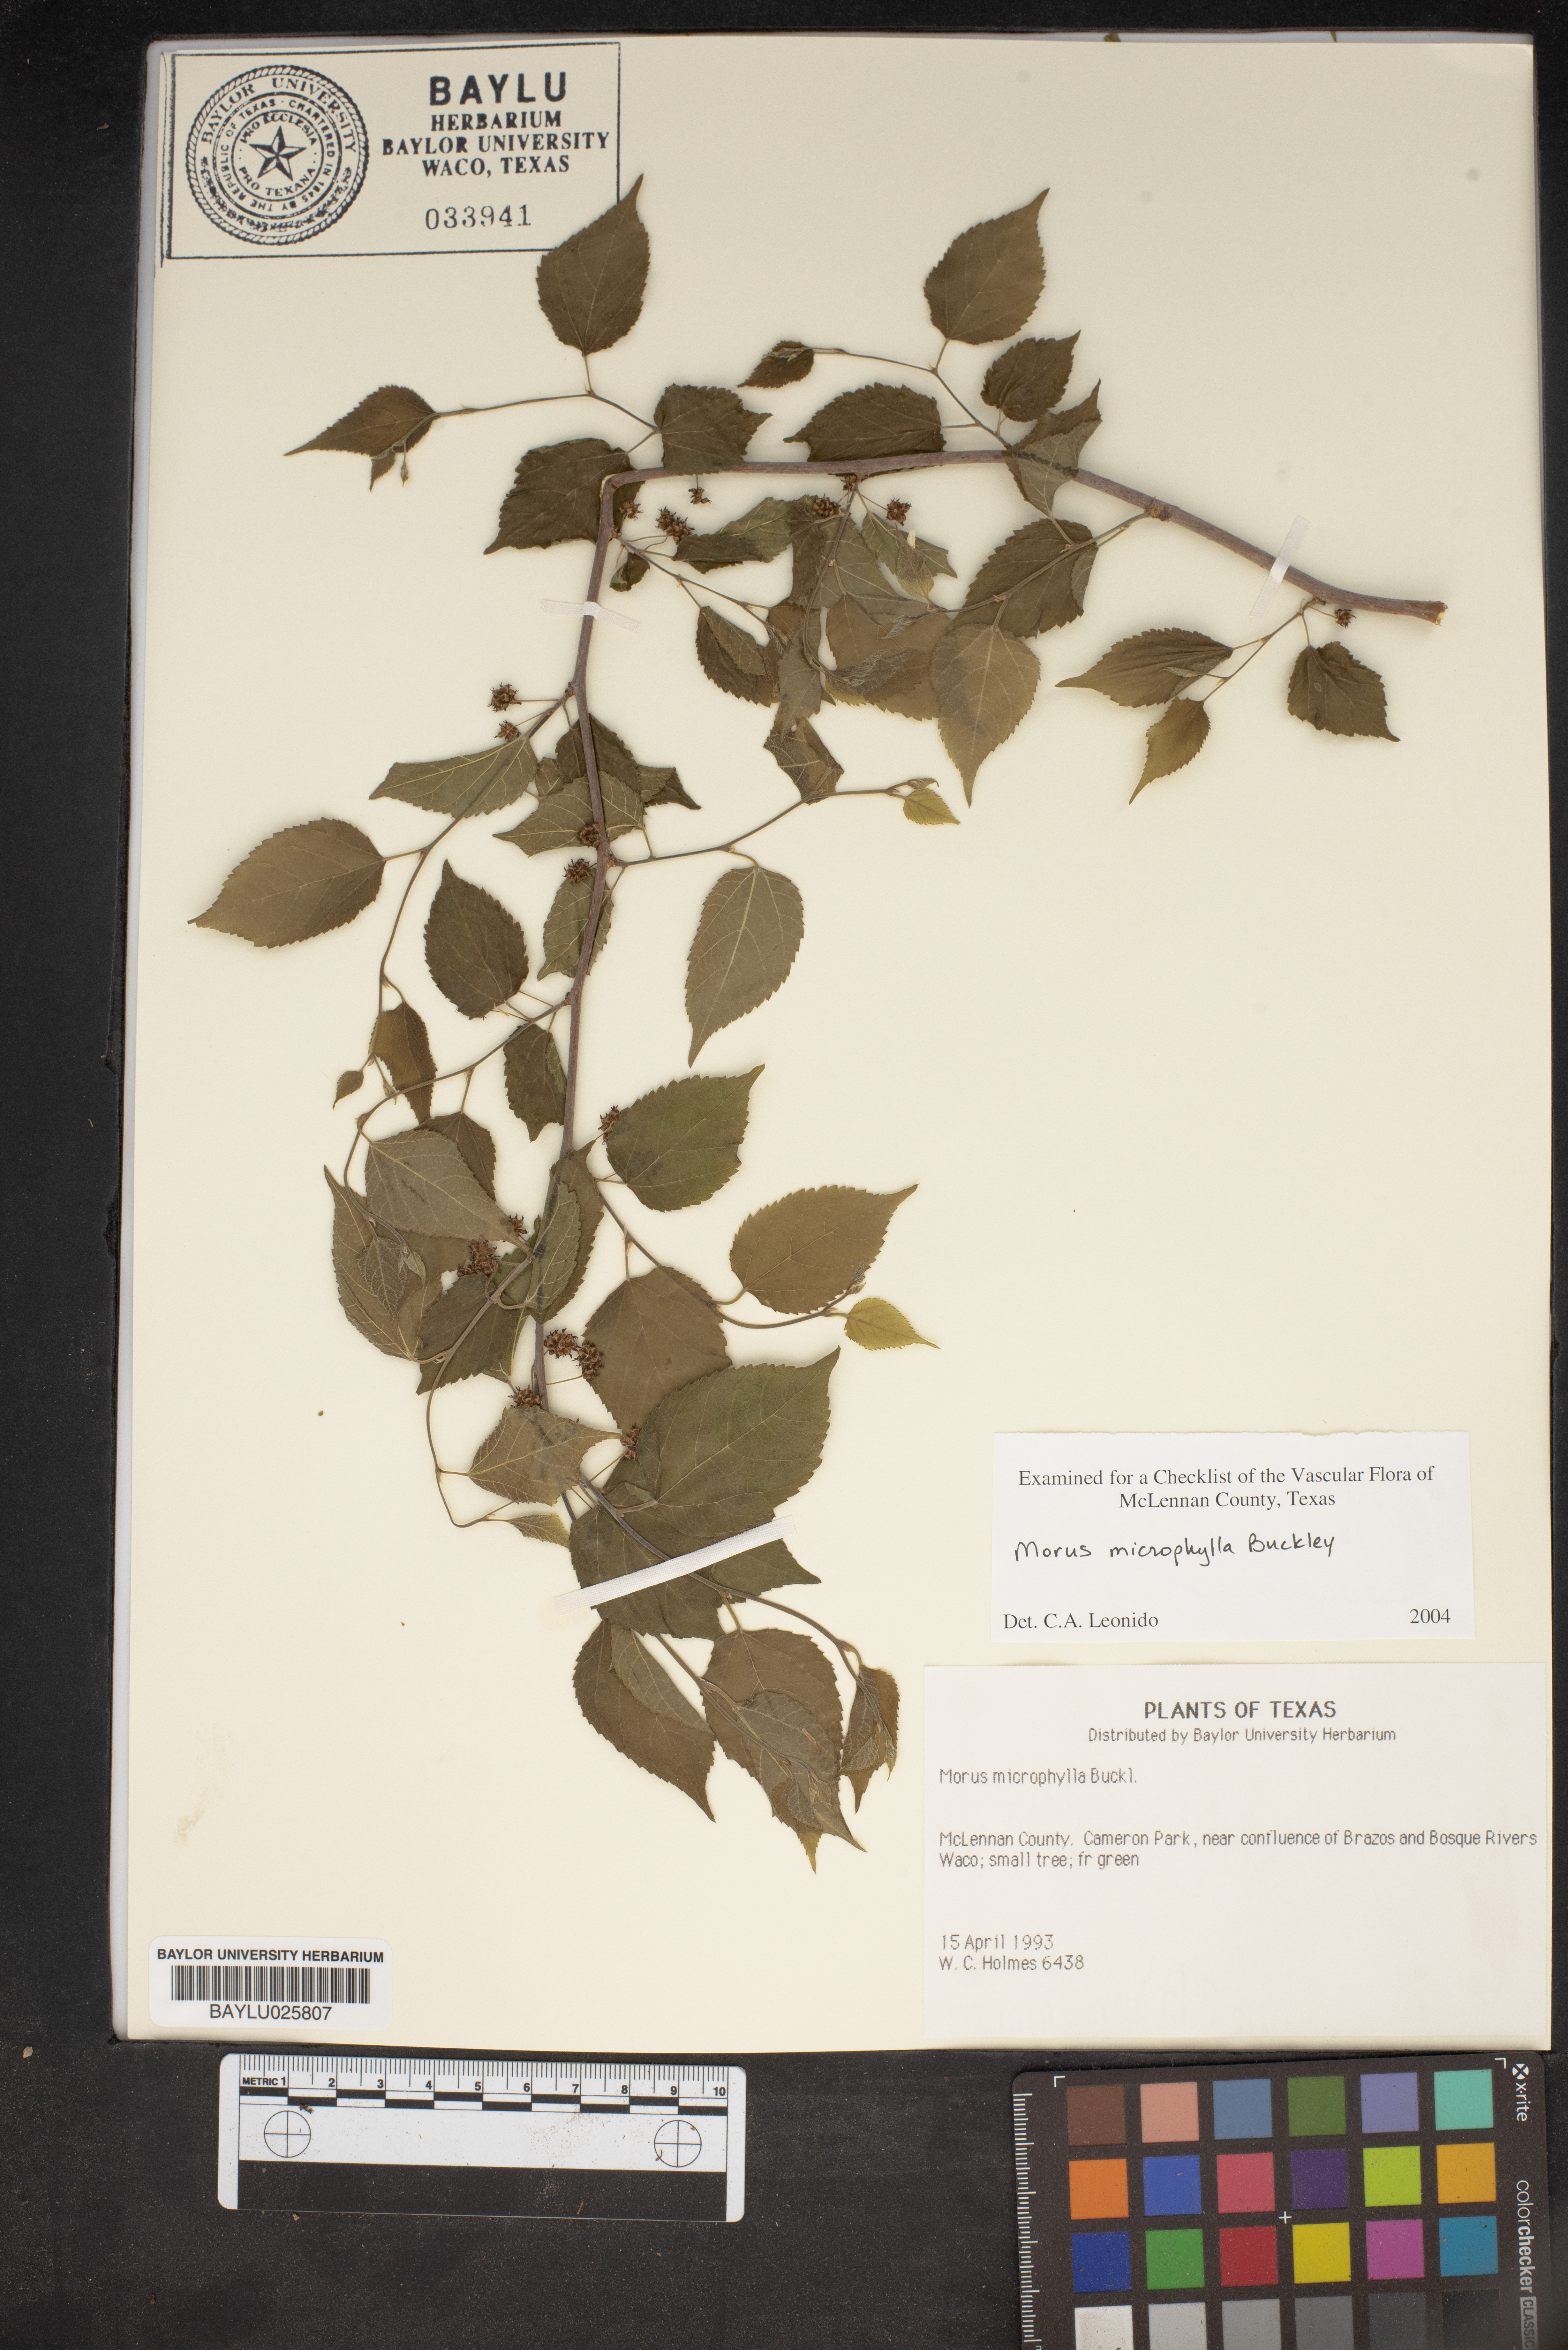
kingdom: Plantae
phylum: Tracheophyta
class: Magnoliopsida
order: Rosales
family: Moraceae
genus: Morus
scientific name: Morus microphylla
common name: Mexican mulberry
